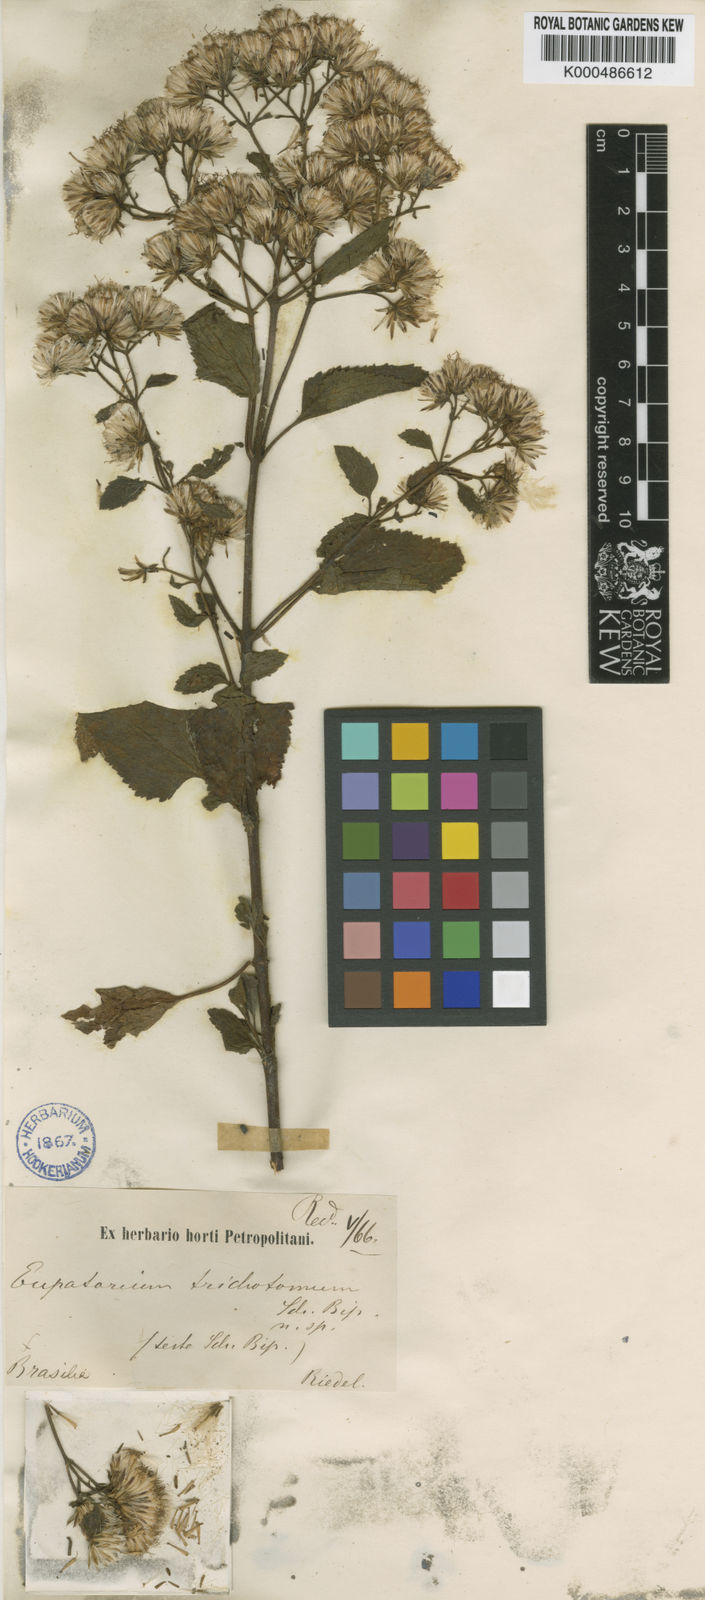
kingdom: Plantae
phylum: Tracheophyta
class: Magnoliopsida
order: Asterales
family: Asteraceae
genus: Heterocondylus
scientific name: Heterocondylus alatus
